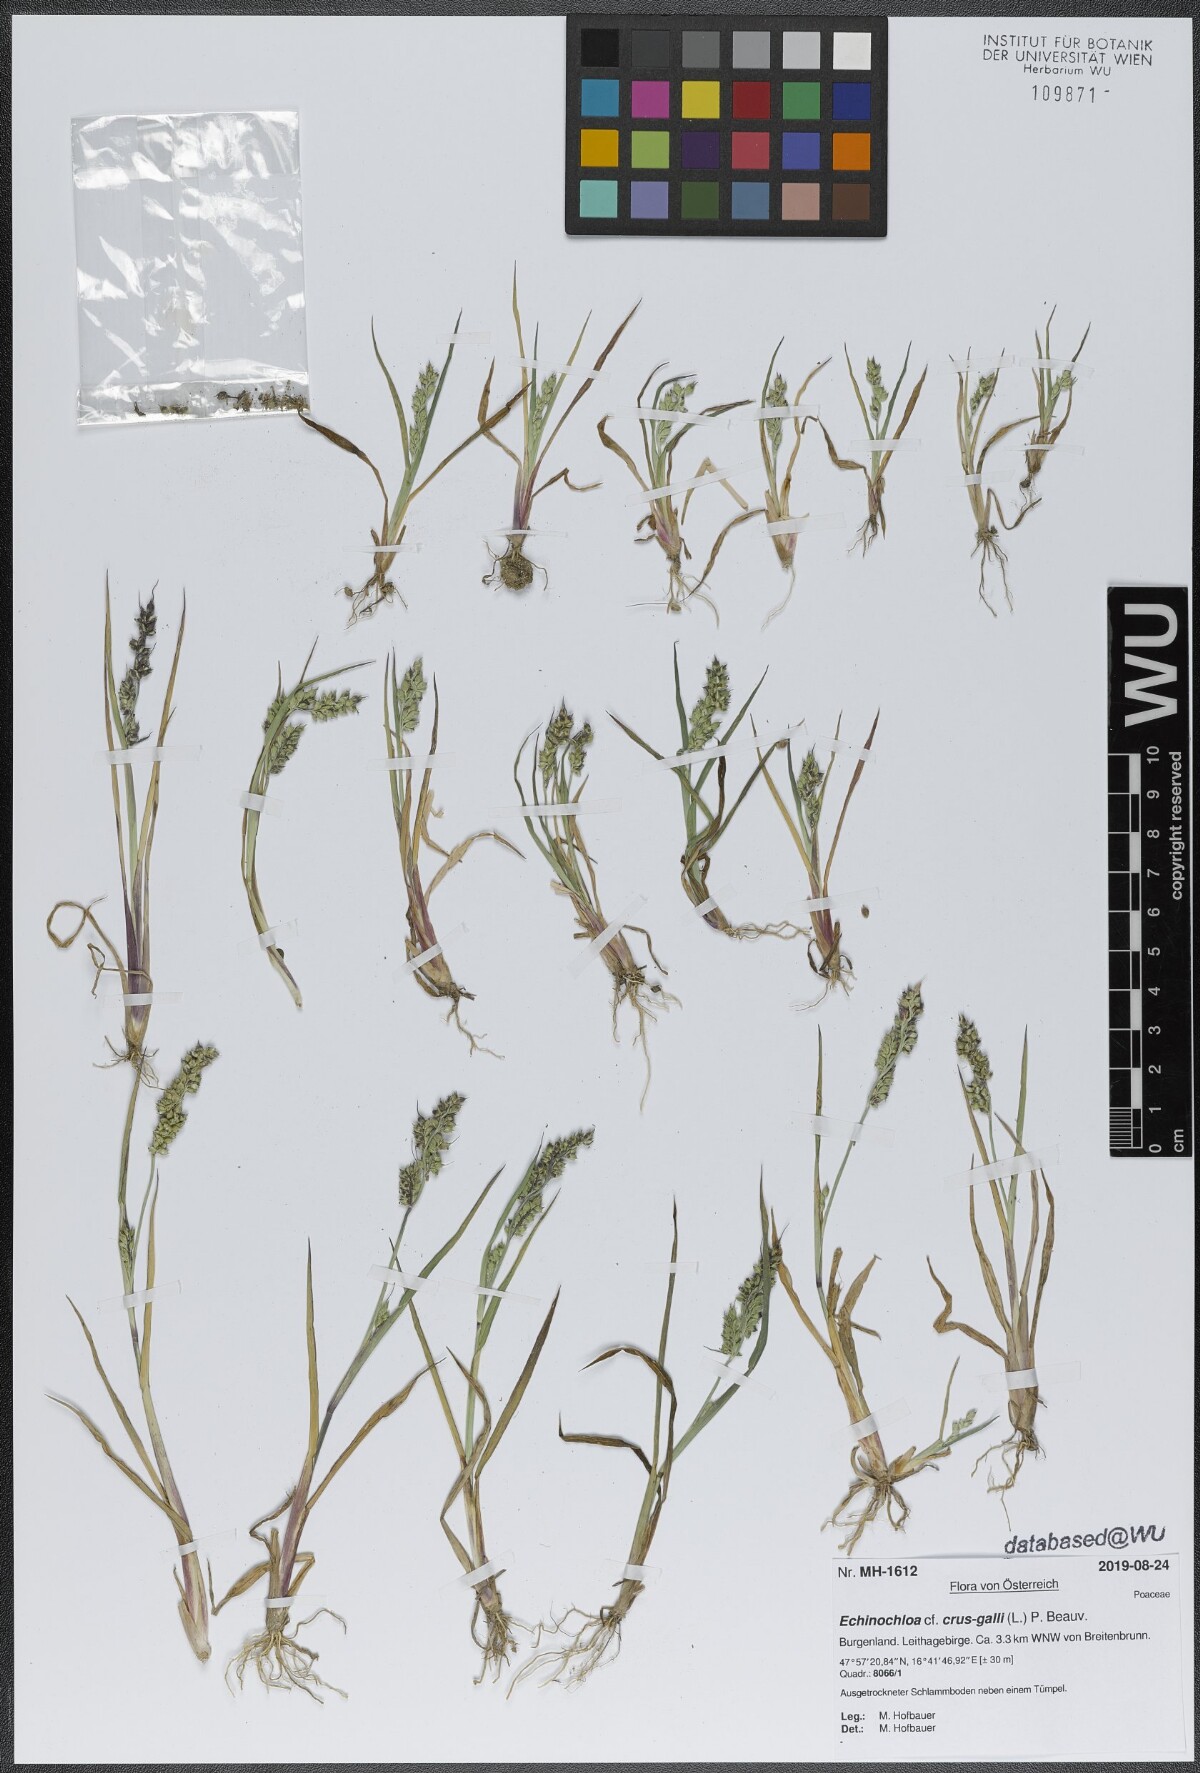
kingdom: Plantae
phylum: Tracheophyta
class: Liliopsida
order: Poales
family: Poaceae
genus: Echinochloa
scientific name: Echinochloa crus-galli
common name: Cockspur
